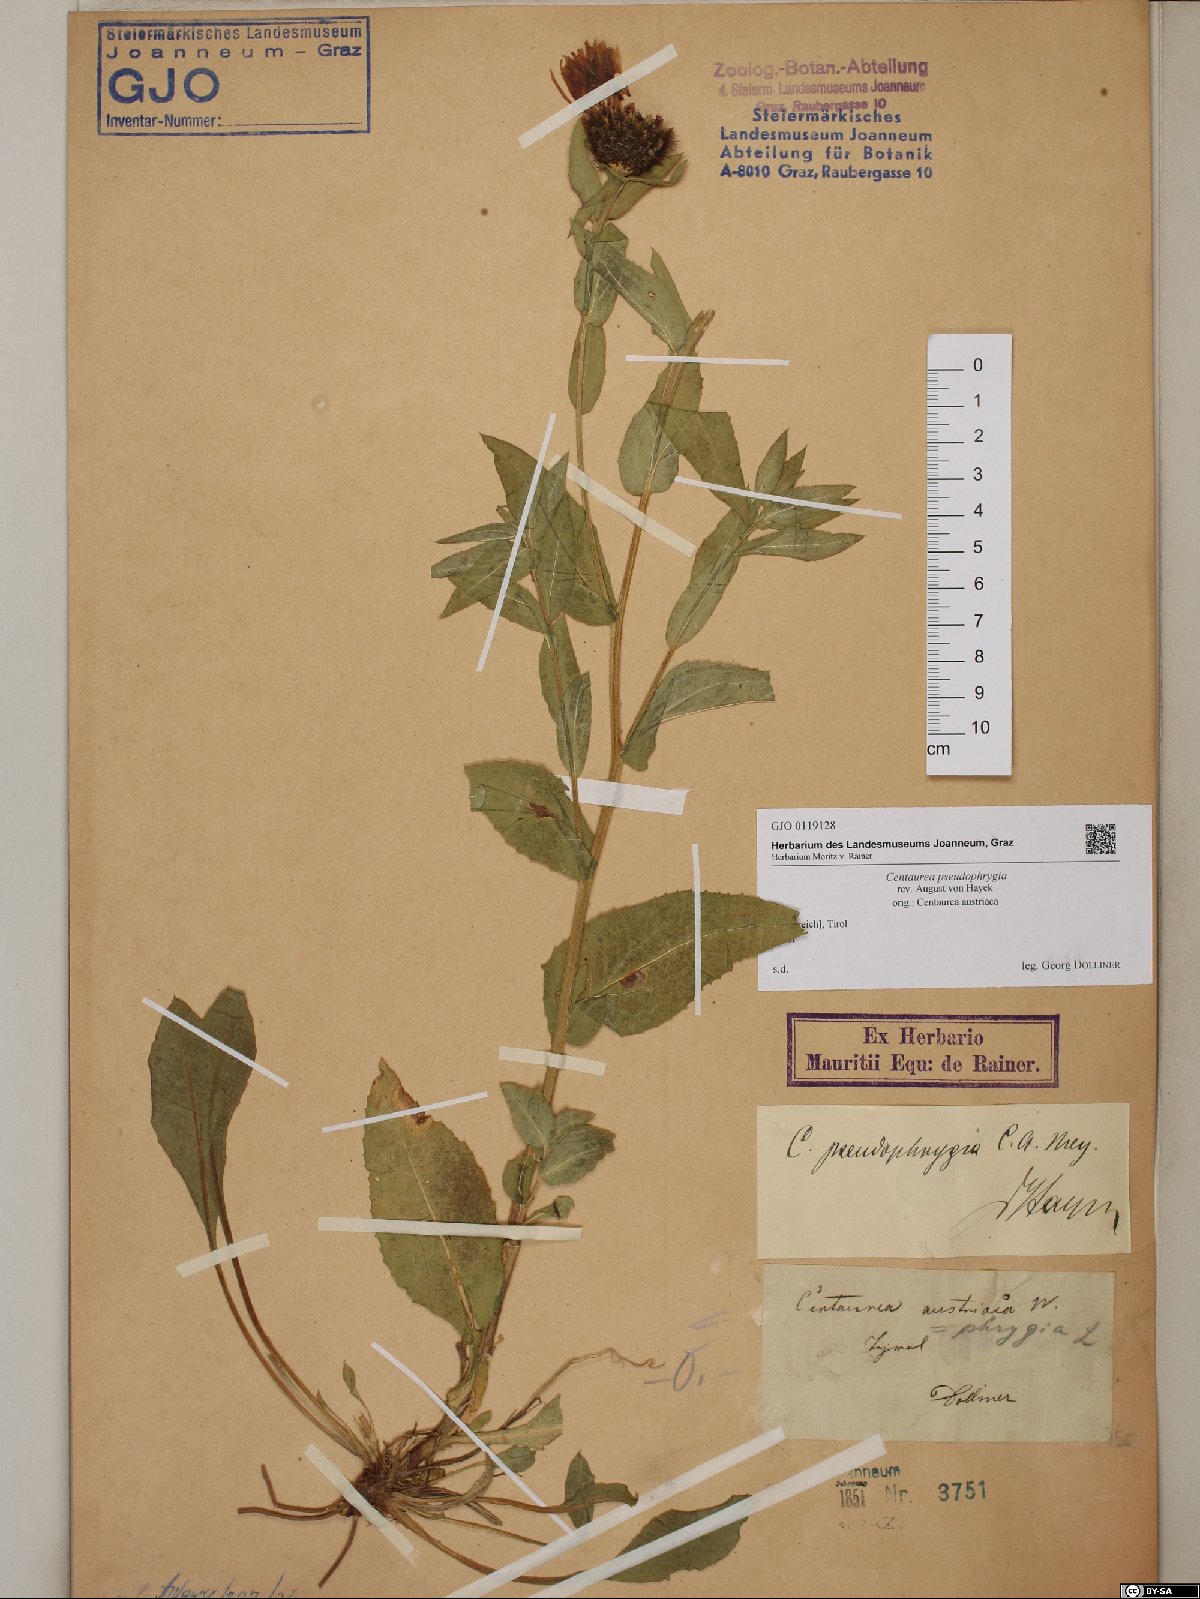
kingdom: Plantae
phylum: Tracheophyta
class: Magnoliopsida
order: Asterales
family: Asteraceae
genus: Centaurea
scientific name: Centaurea pseudophrygia
